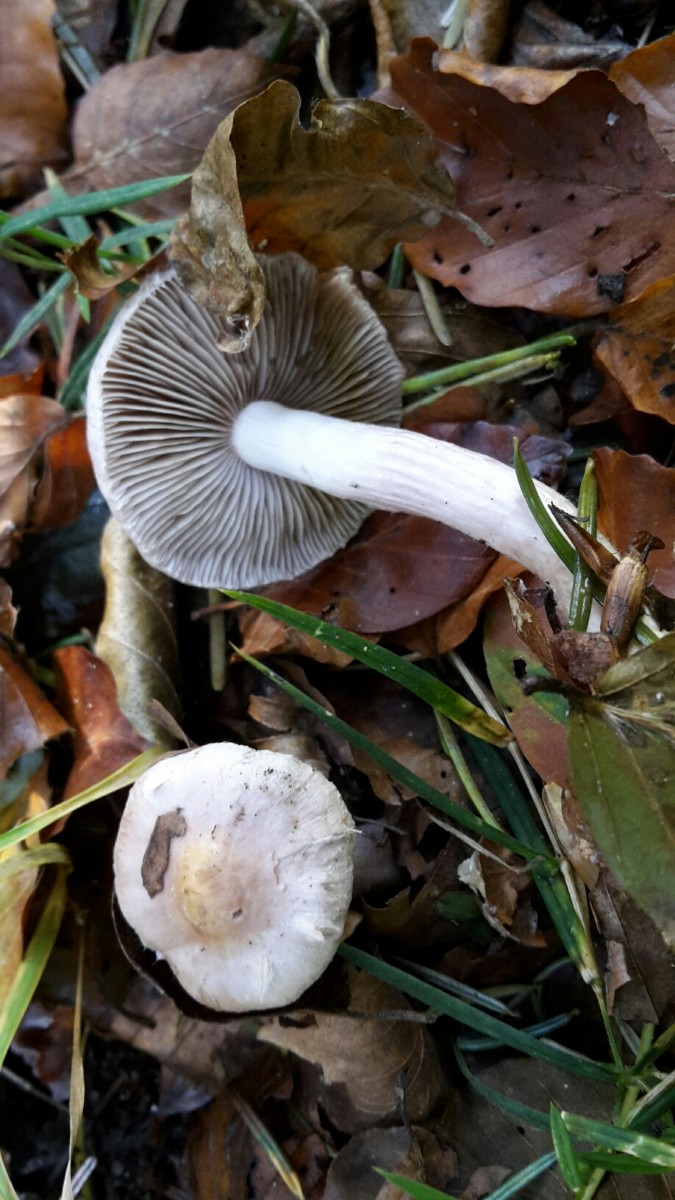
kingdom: Fungi
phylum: Basidiomycota
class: Agaricomycetes
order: Agaricales
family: Inocybaceae
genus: Inocybe
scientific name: Inocybe geophylla
